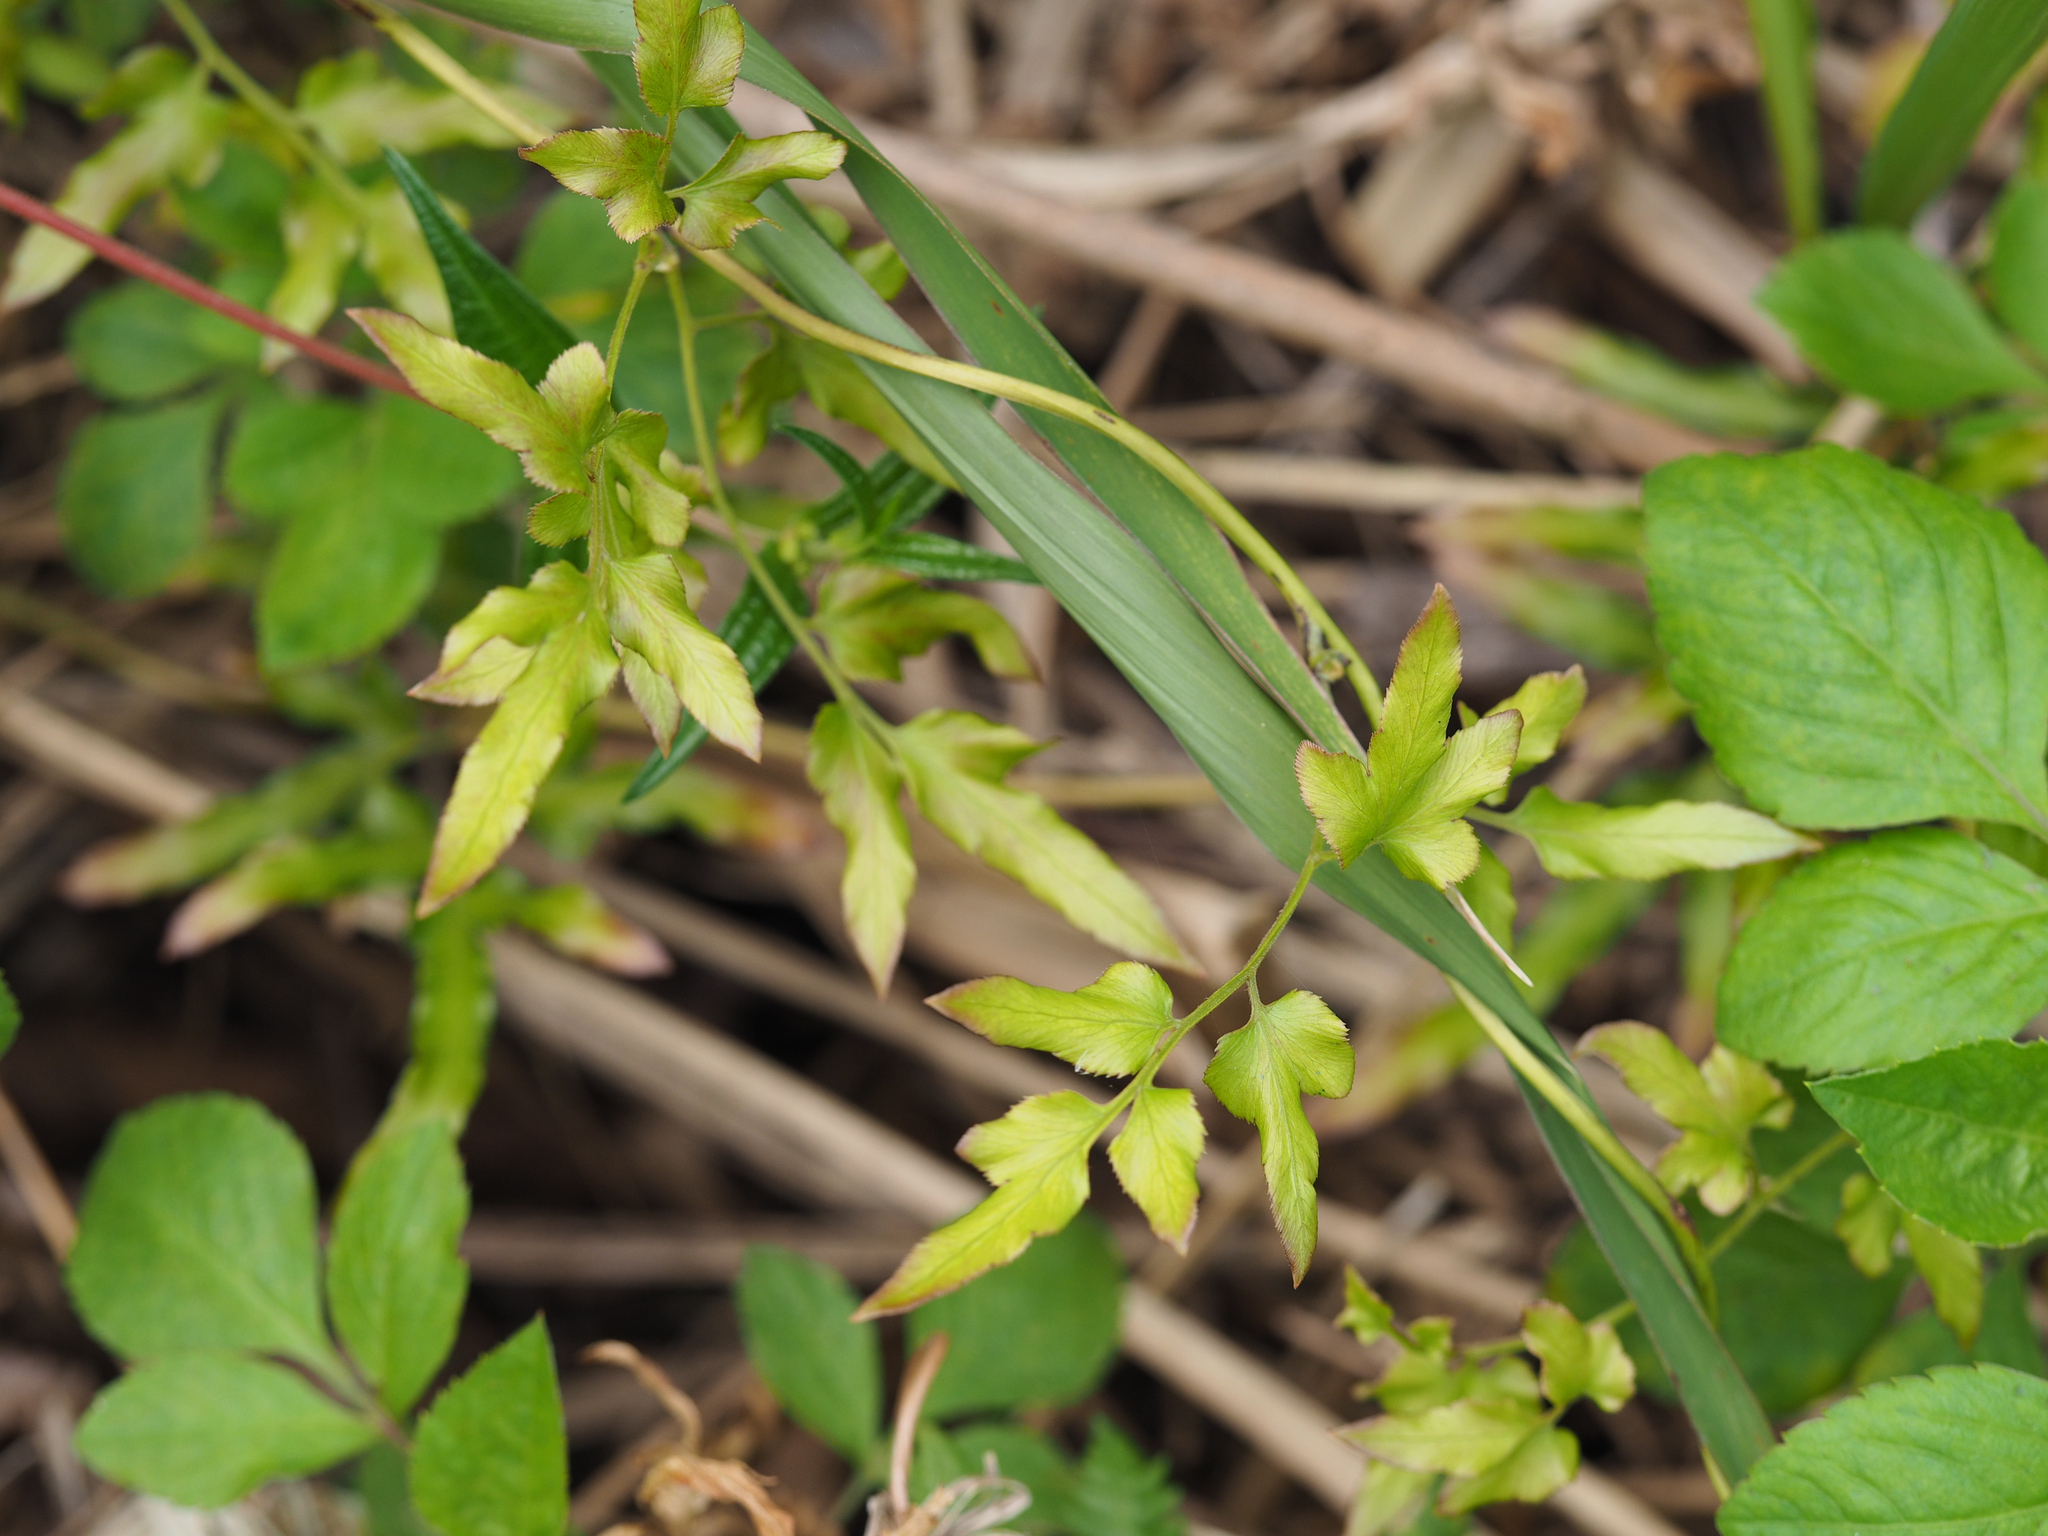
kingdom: Plantae
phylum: Tracheophyta
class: Polypodiopsida
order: Schizaeales
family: Lygodiaceae
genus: Lygodium
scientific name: Lygodium japonicum
